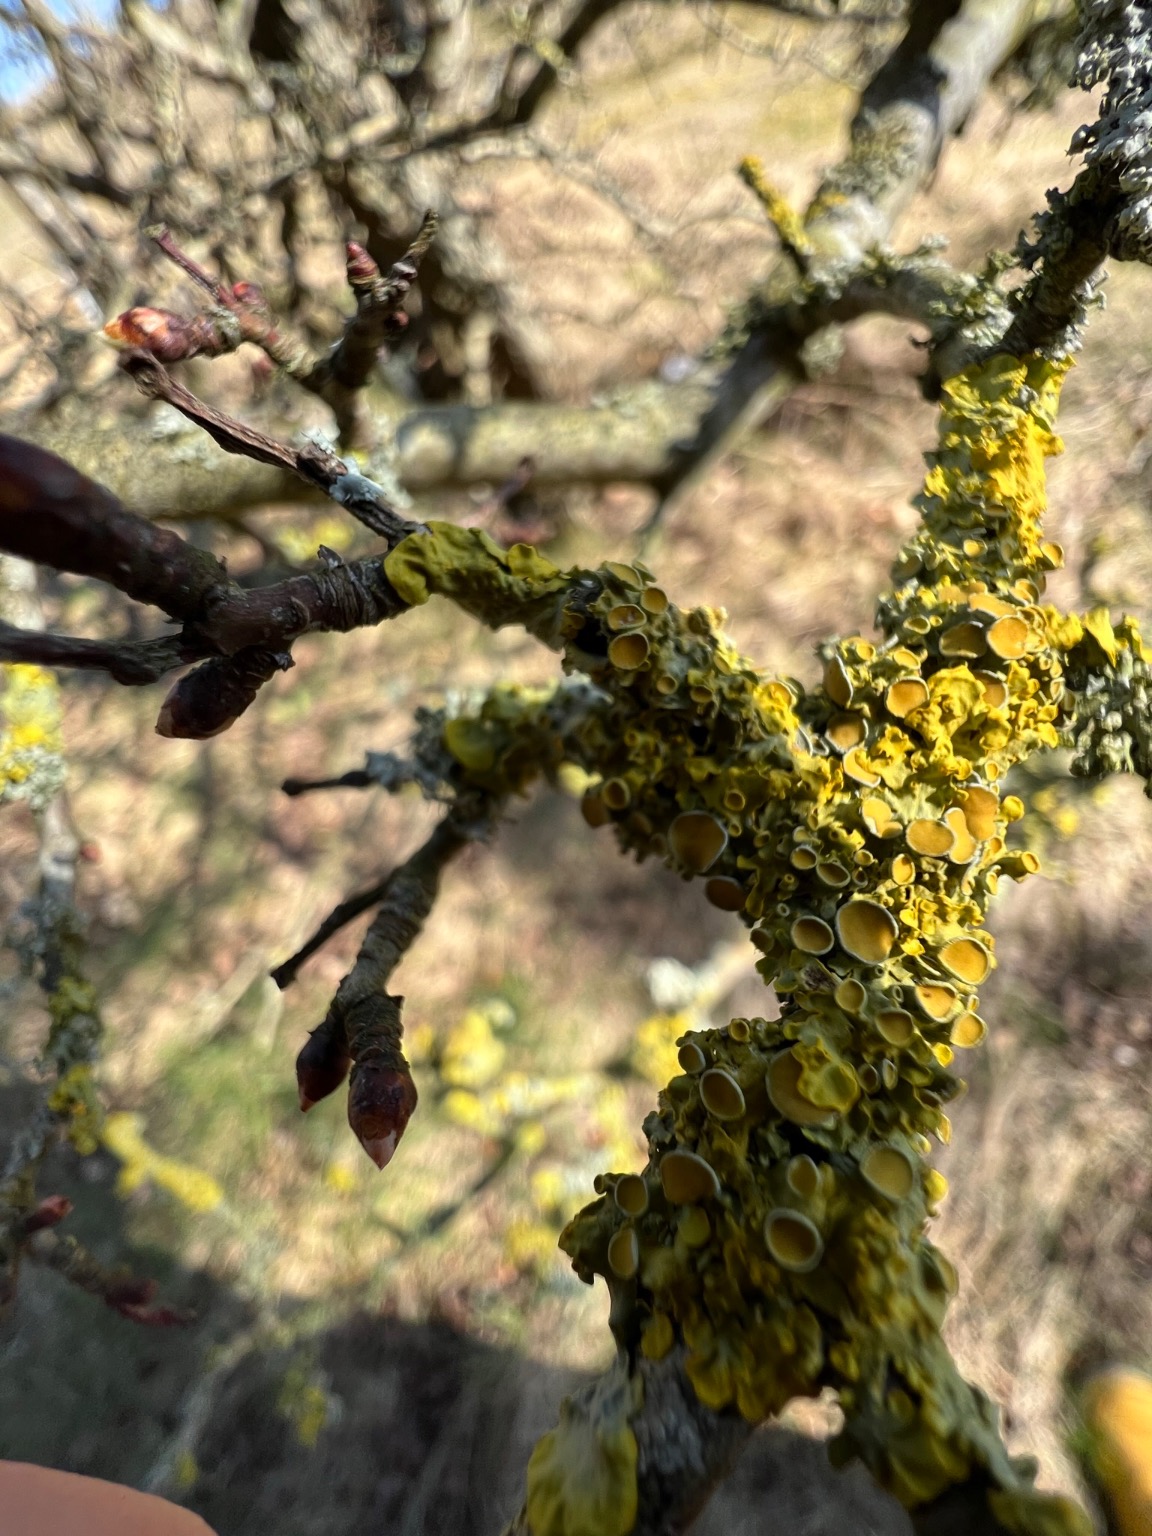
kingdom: Fungi
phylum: Ascomycota
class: Lecanoromycetes
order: Teloschistales
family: Teloschistaceae
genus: Xanthoria
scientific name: Xanthoria parietina
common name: Almindelig væggelav
